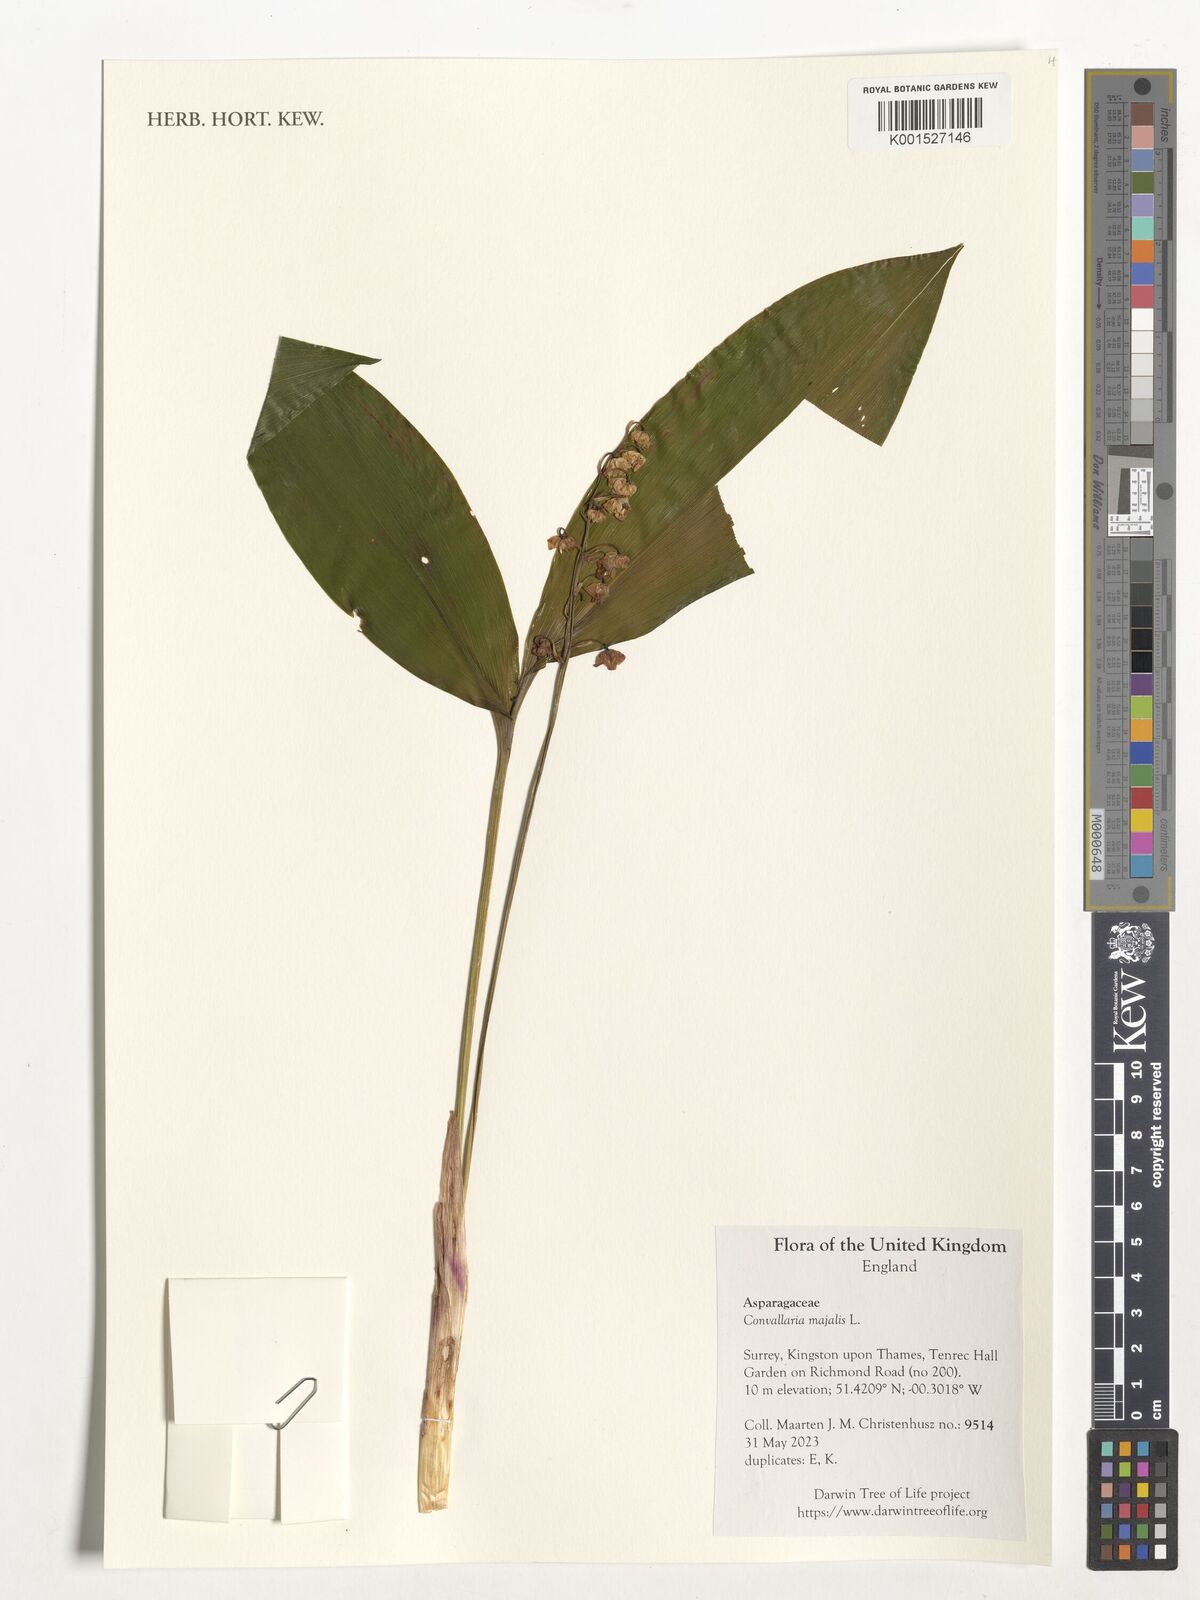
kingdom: Plantae
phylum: Tracheophyta
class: Liliopsida
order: Asparagales
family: Asparagaceae
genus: Convallaria
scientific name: Convallaria majalis
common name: Lily-of-the-valley
